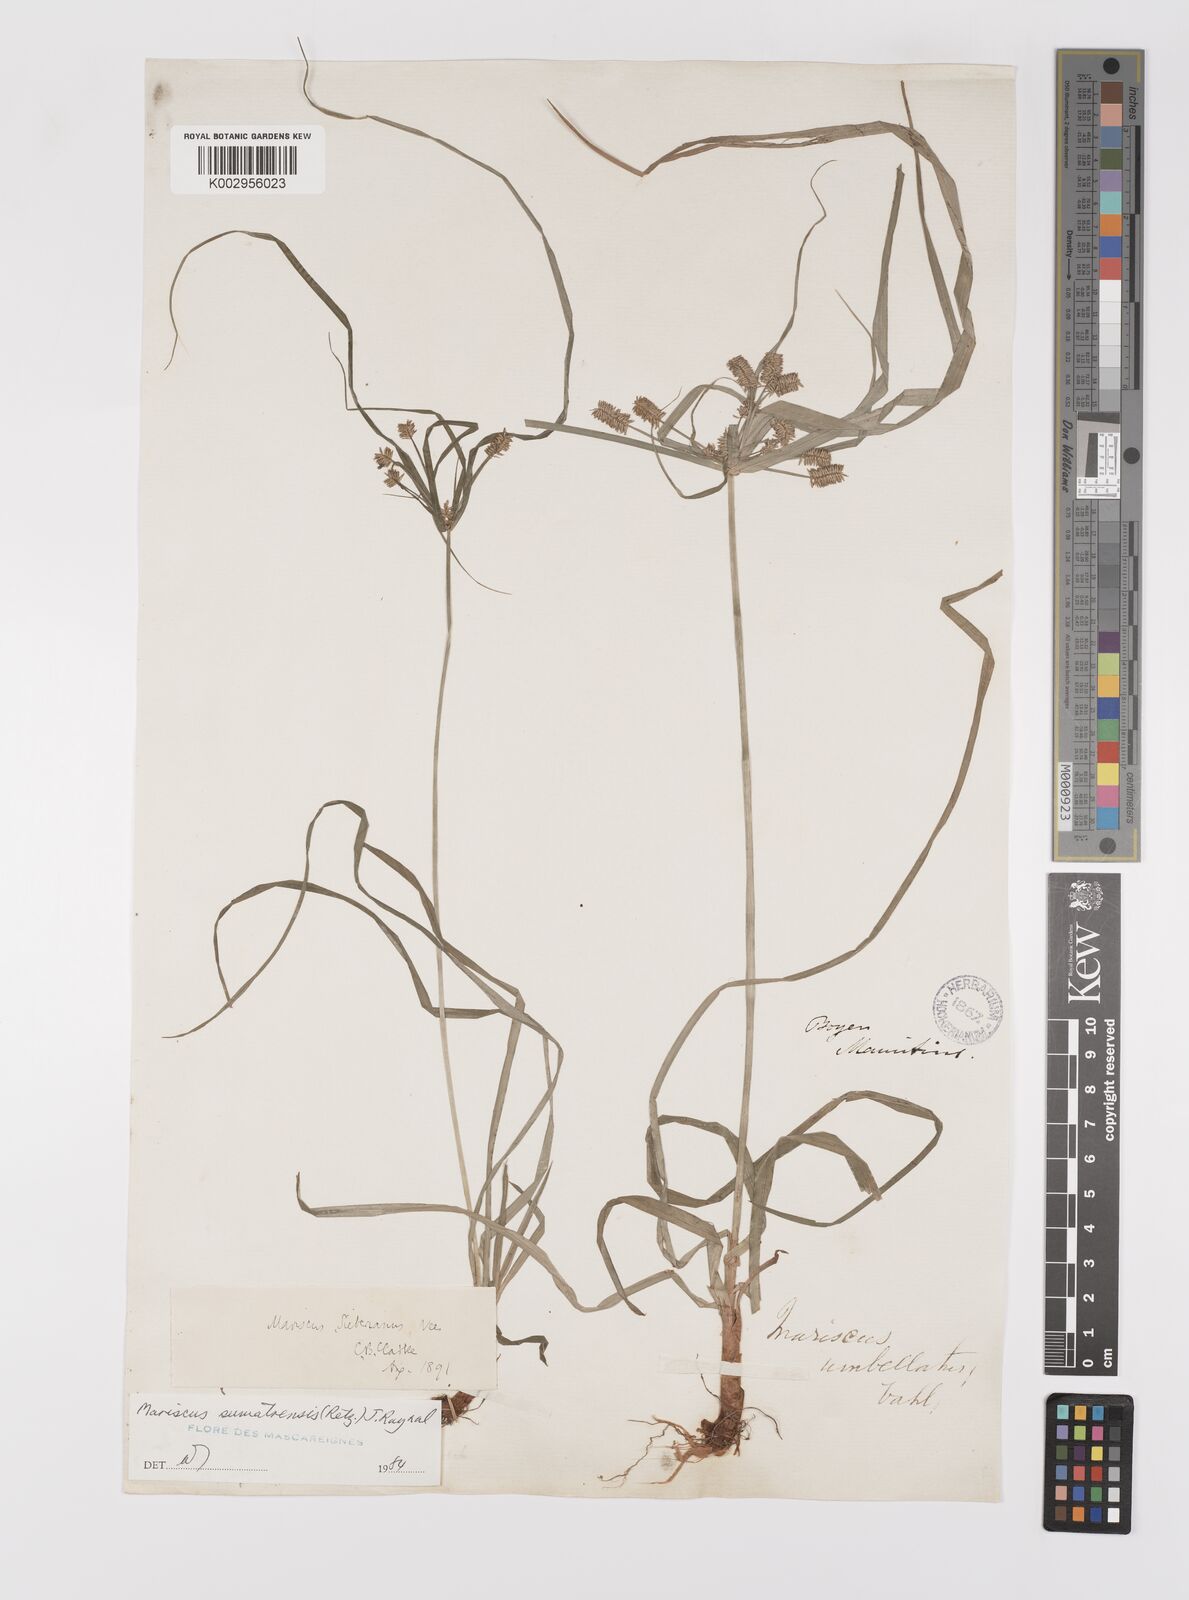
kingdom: Plantae
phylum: Tracheophyta
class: Liliopsida
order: Poales
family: Cyperaceae
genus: Cyperus
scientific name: Cyperus cyperoides
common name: Pacific island flat sedge
